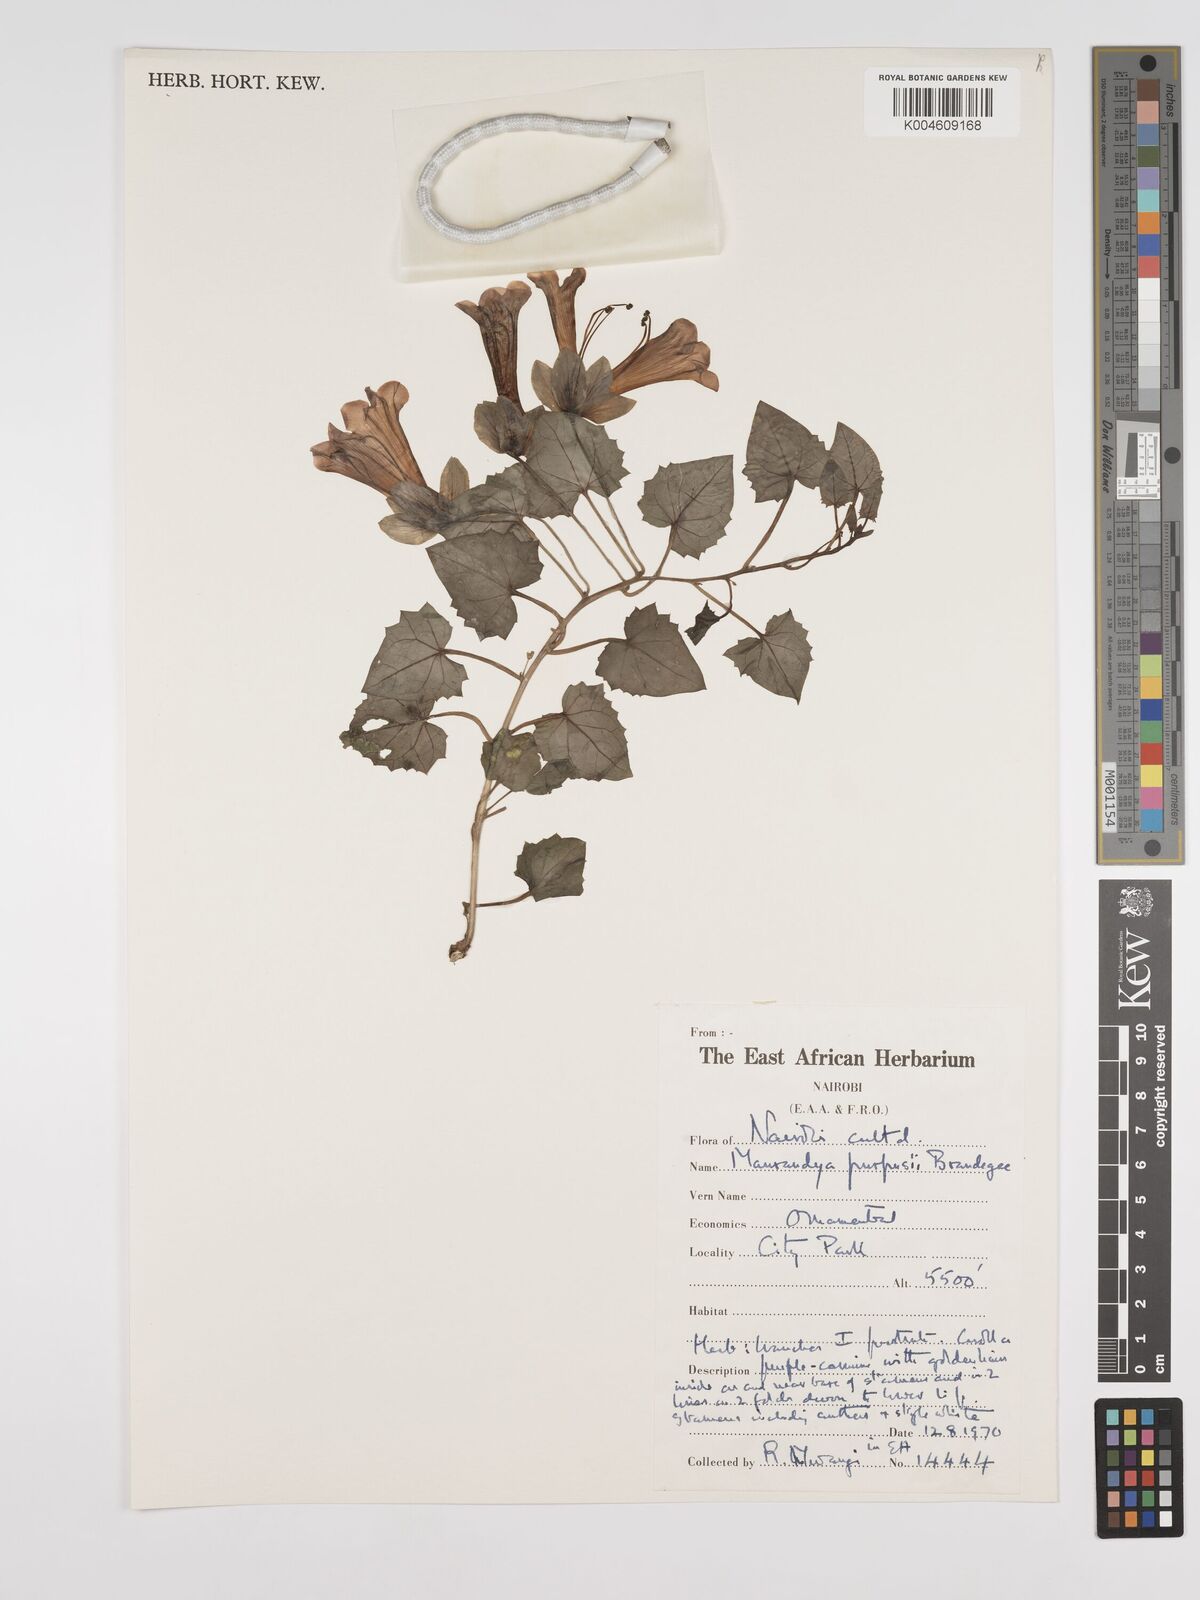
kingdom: Plantae
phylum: Tracheophyta
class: Magnoliopsida
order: Lamiales
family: Plantaginaceae
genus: Lophospermum
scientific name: Lophospermum purpusii
